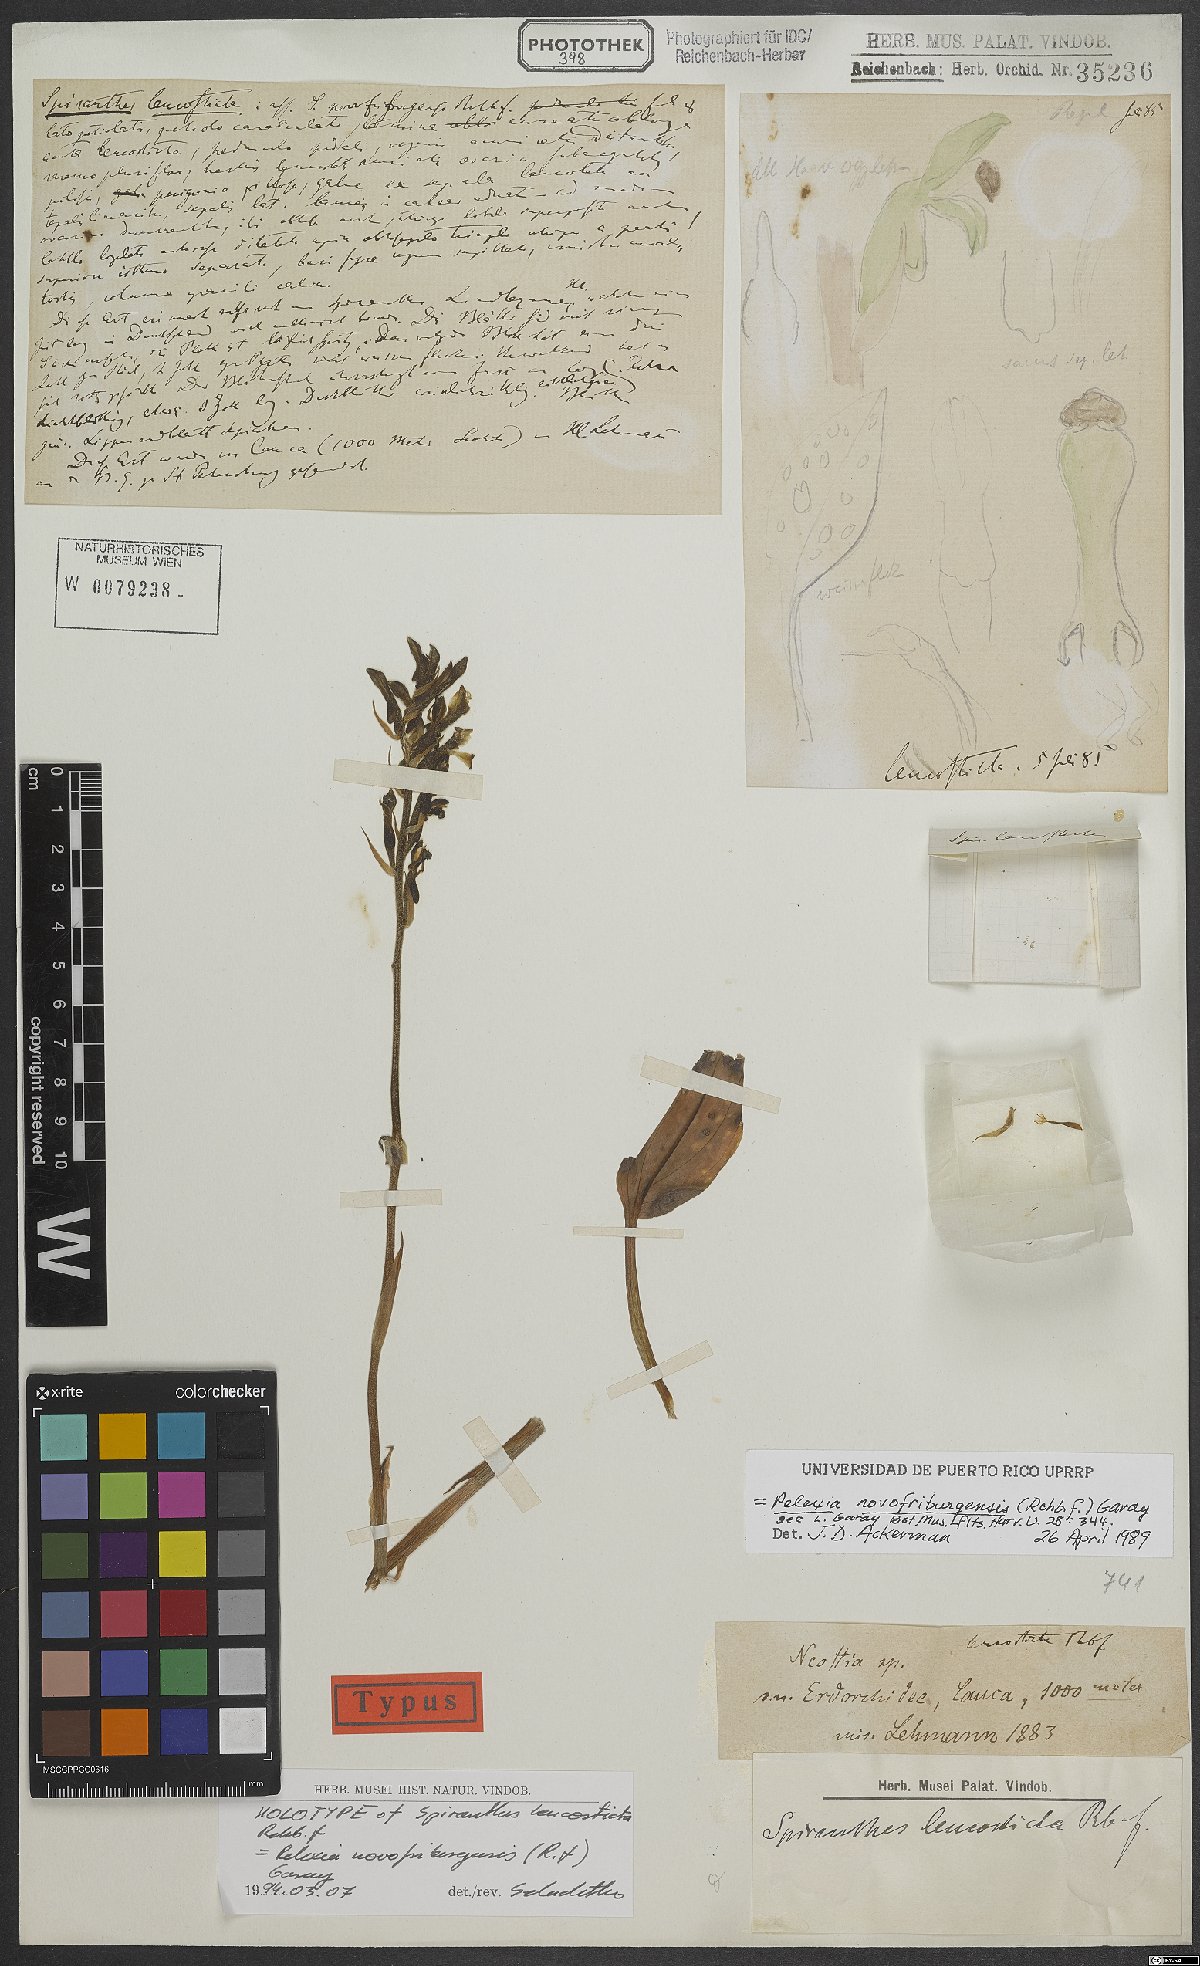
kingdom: Plantae
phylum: Tracheophyta
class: Liliopsida
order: Asparagales
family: Orchidaceae
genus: Pelexia
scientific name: Pelexia novofriburgensis
